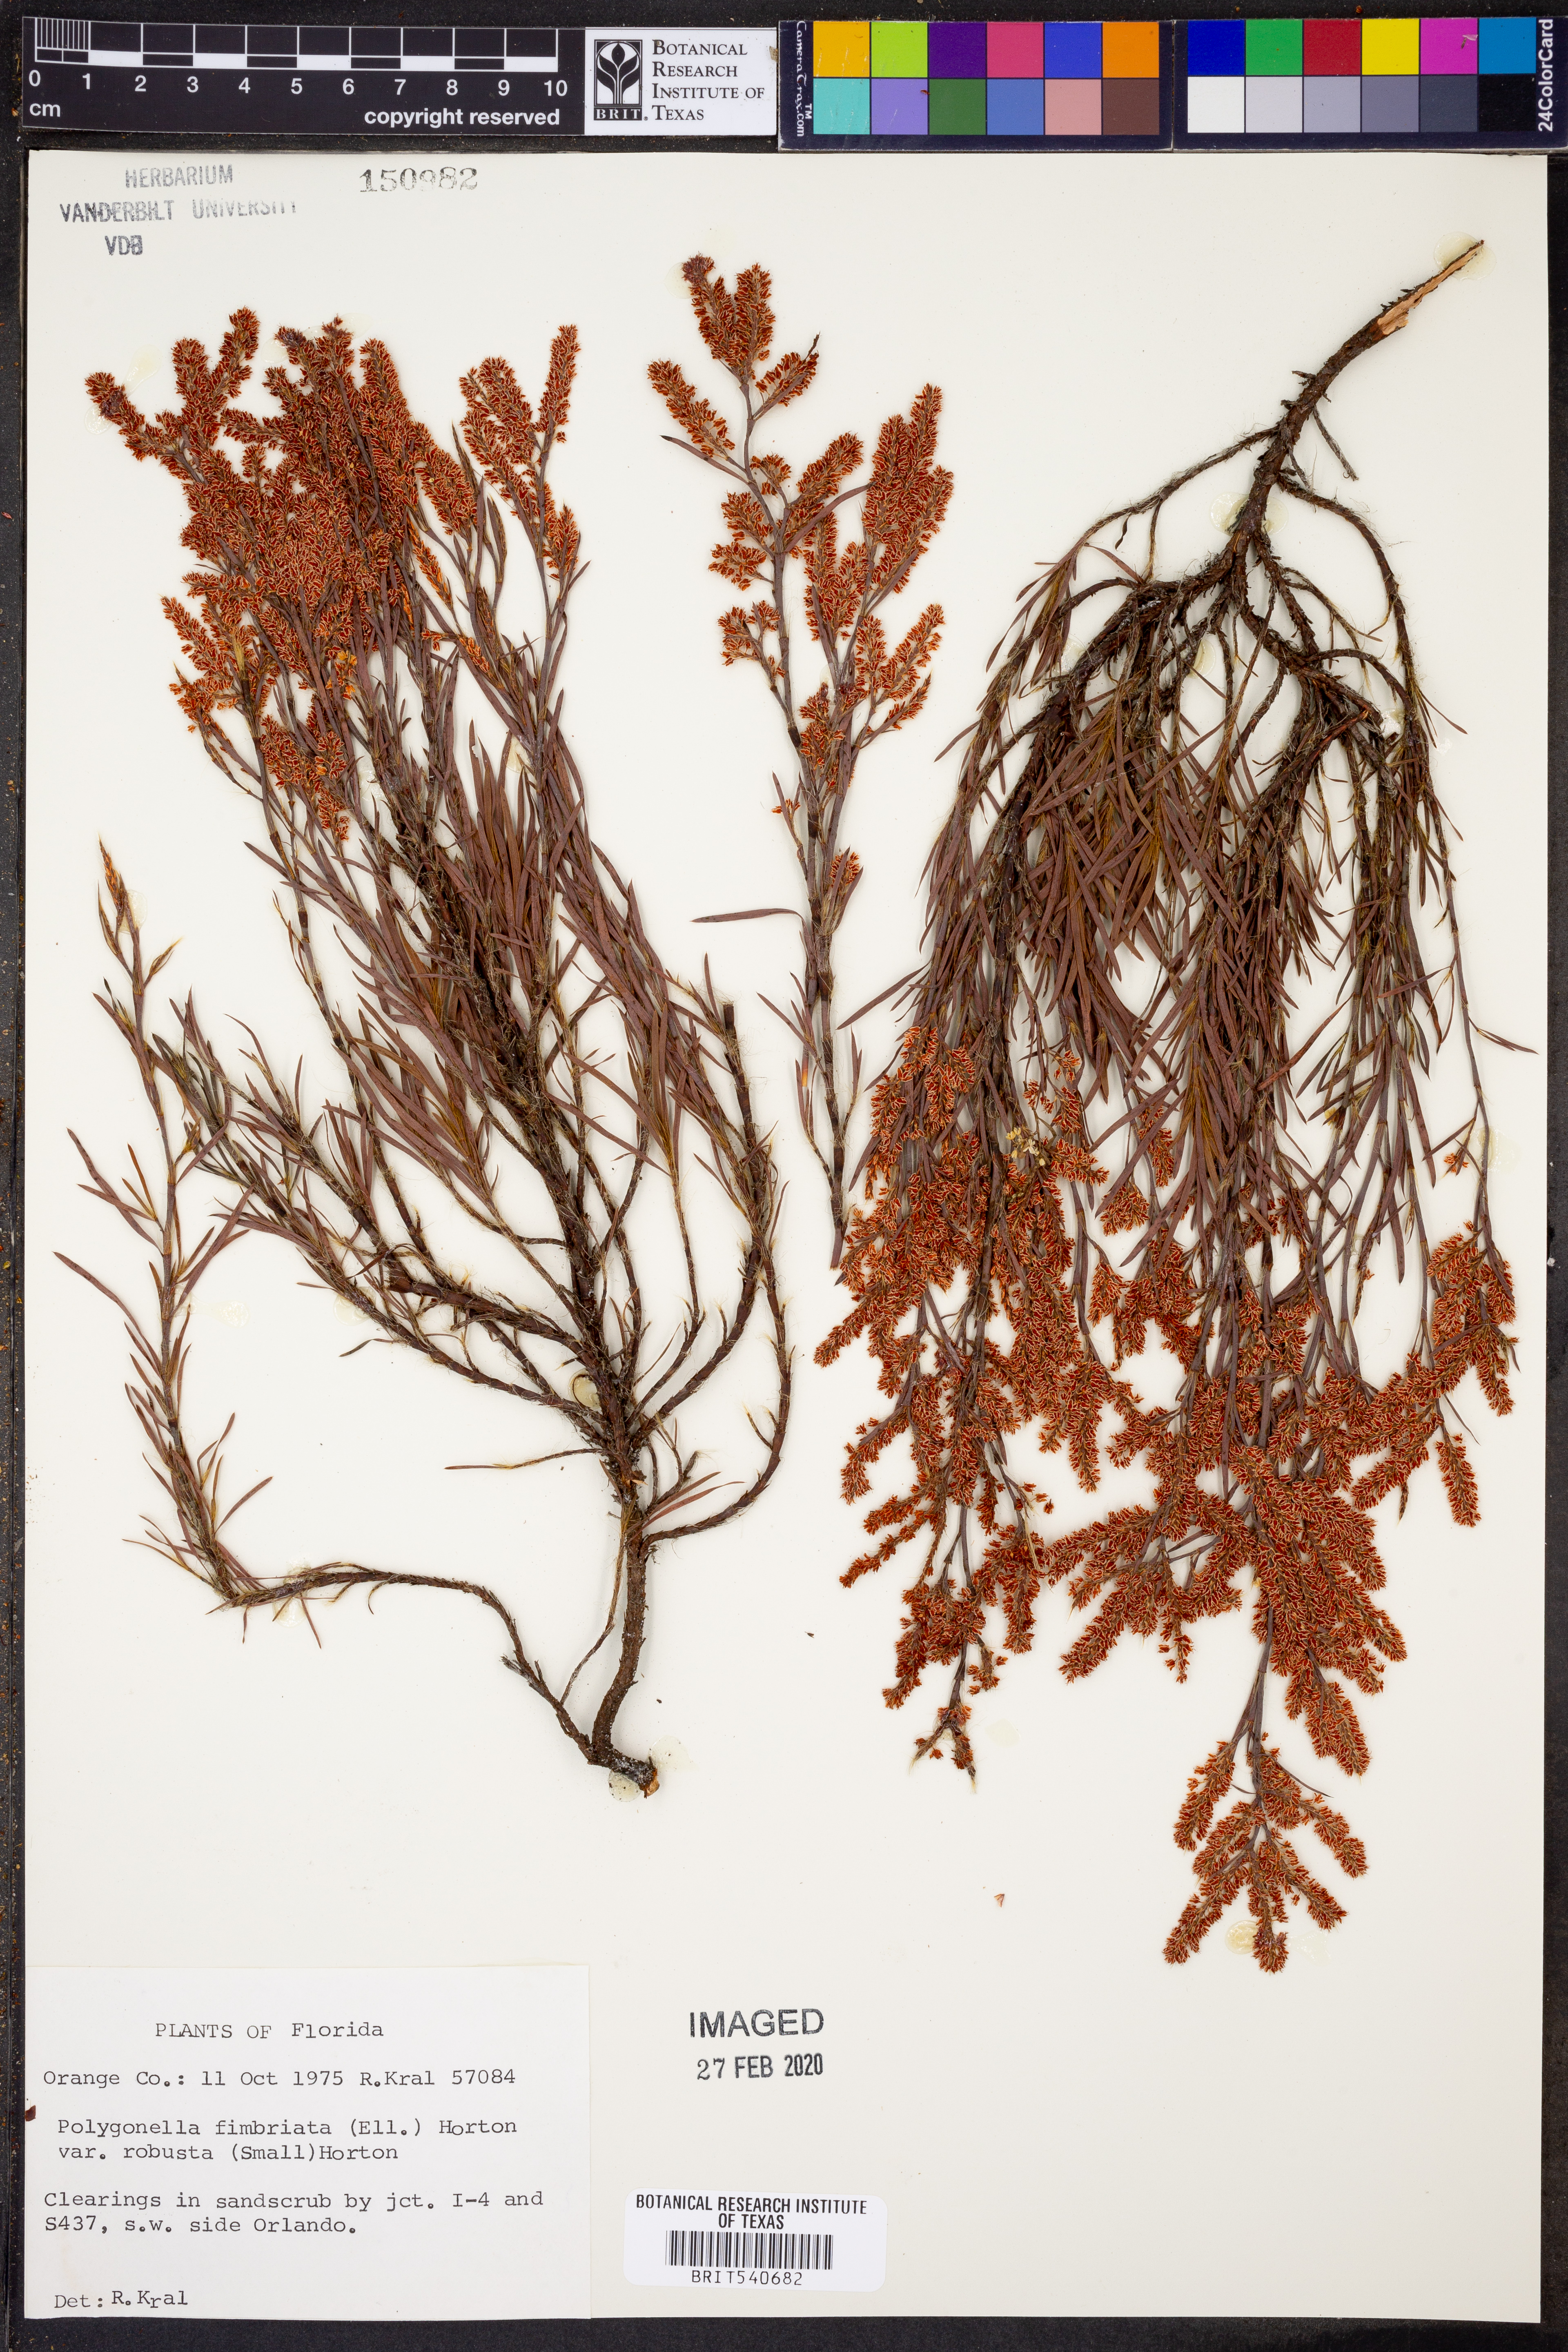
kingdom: Plantae
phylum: Tracheophyta
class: Magnoliopsida
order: Caryophyllales
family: Polygonaceae
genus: Polygonella
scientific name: Polygonella robusta
